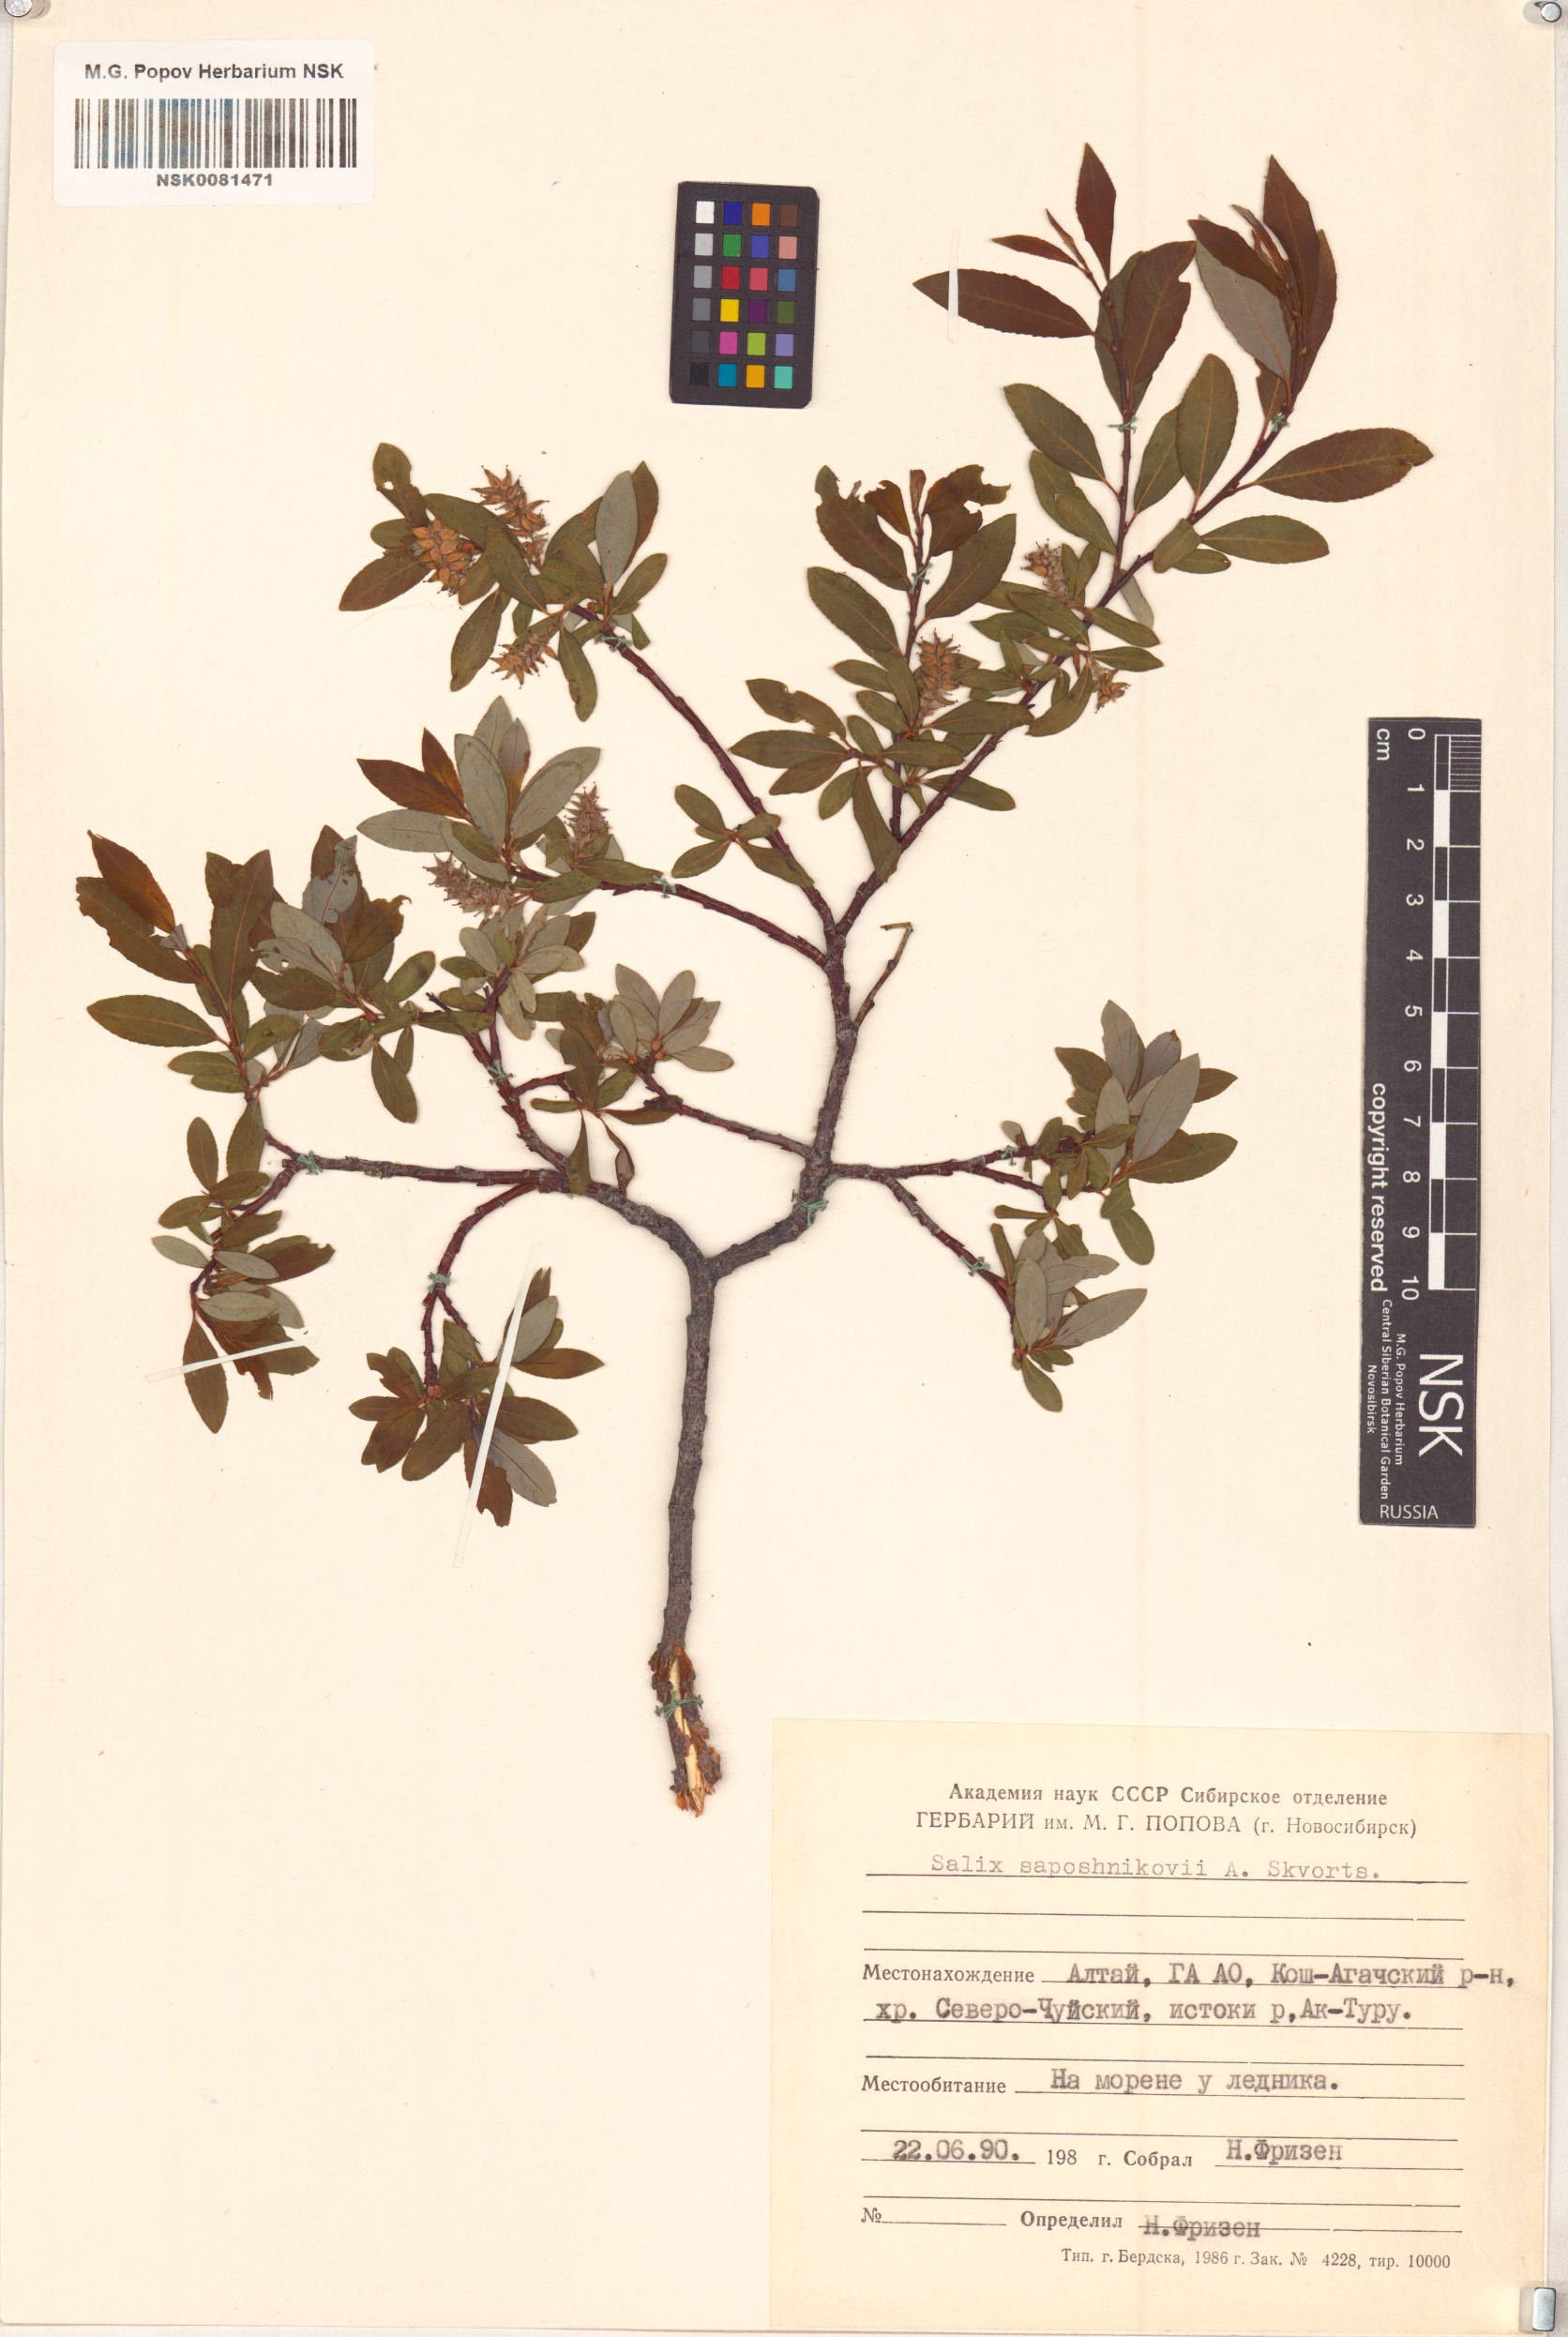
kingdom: Plantae
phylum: Tracheophyta
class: Magnoliopsida
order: Malpighiales
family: Salicaceae
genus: Salix
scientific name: Salix saposhnikovii
